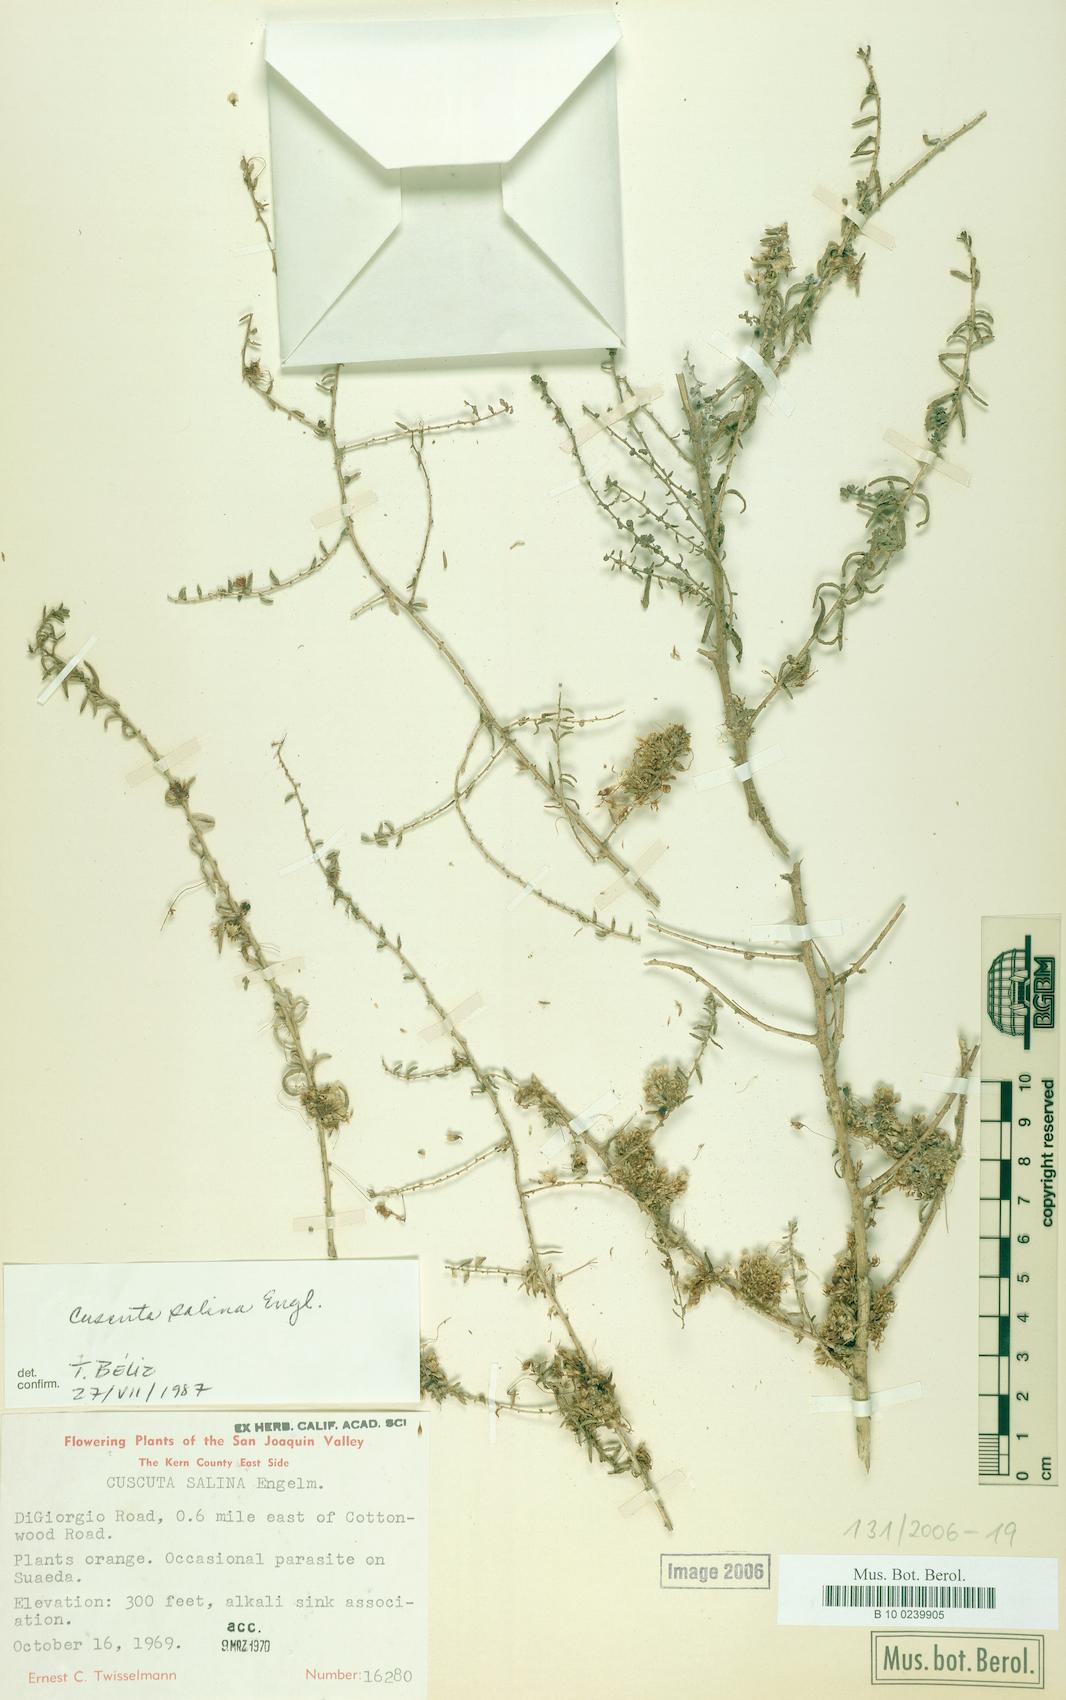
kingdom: Plantae
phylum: Tracheophyta
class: Magnoliopsida
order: Solanales
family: Convolvulaceae
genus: Cuscuta
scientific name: Cuscuta salina
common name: Goldenthread
